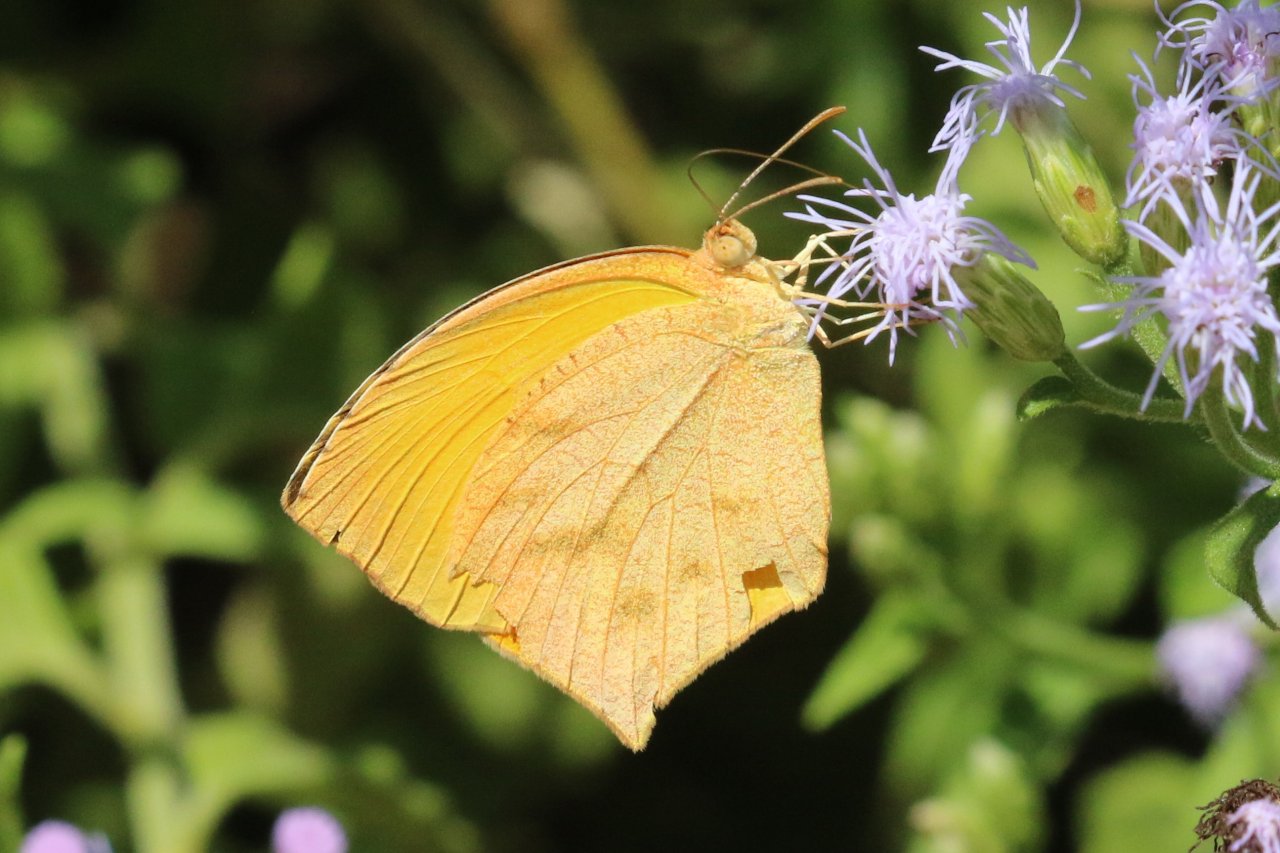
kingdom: Animalia
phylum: Arthropoda
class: Insecta
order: Lepidoptera
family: Pieridae
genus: Pyrisitia
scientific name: Pyrisitia proterpia
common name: Tailed Orange
